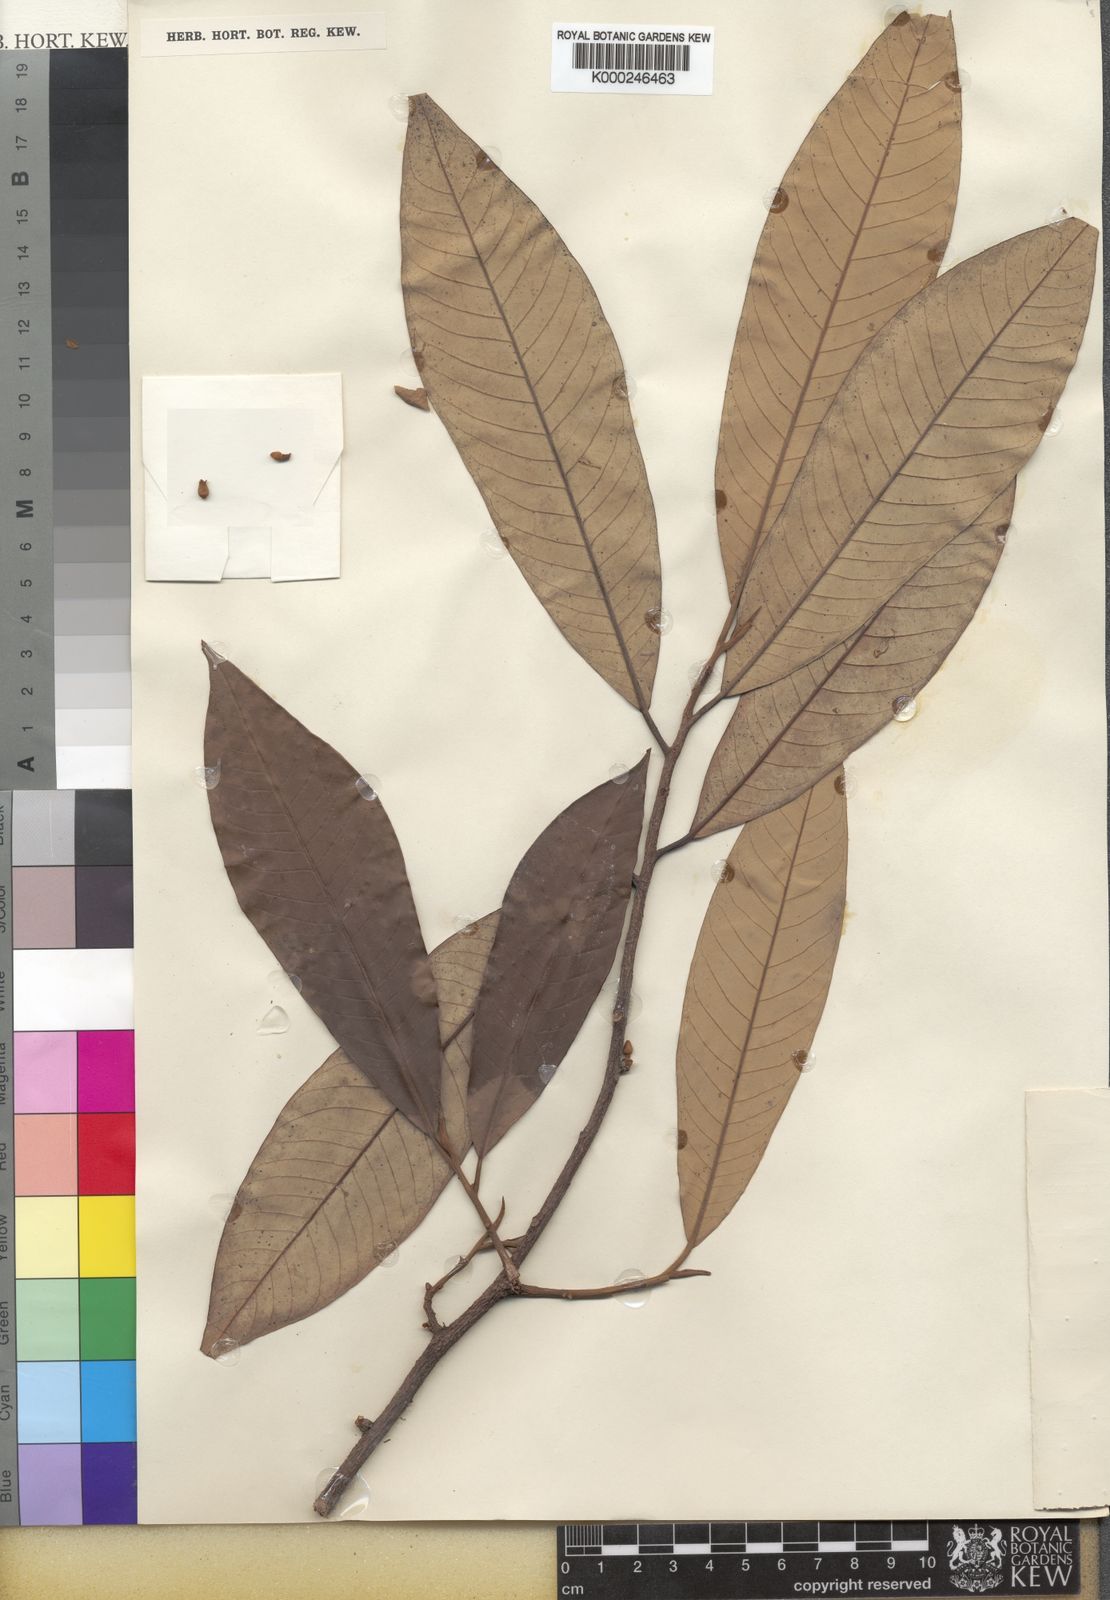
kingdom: Plantae
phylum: Tracheophyta
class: Magnoliopsida
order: Magnoliales
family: Myristicaceae
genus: Myristica
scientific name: Myristica fatua
